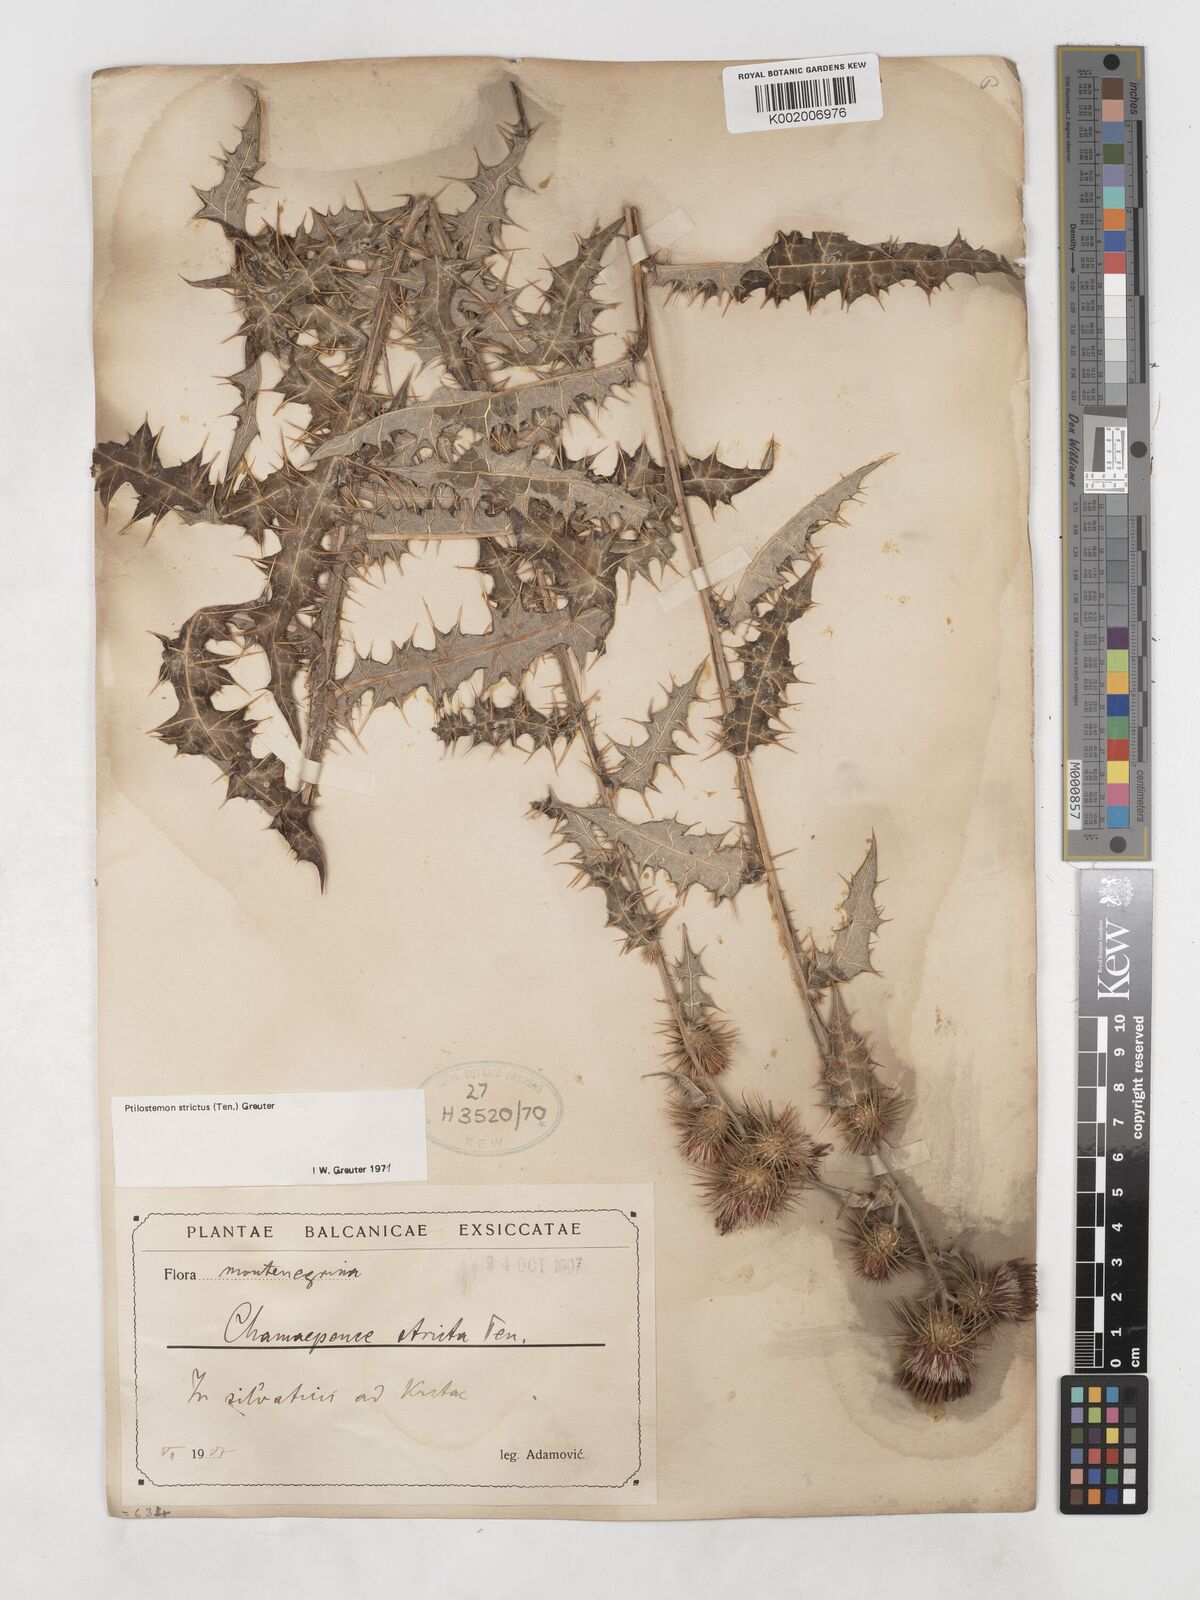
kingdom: Plantae
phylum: Tracheophyta
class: Magnoliopsida
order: Asterales
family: Asteraceae
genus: Ptilostemon
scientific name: Ptilostemon strictus
